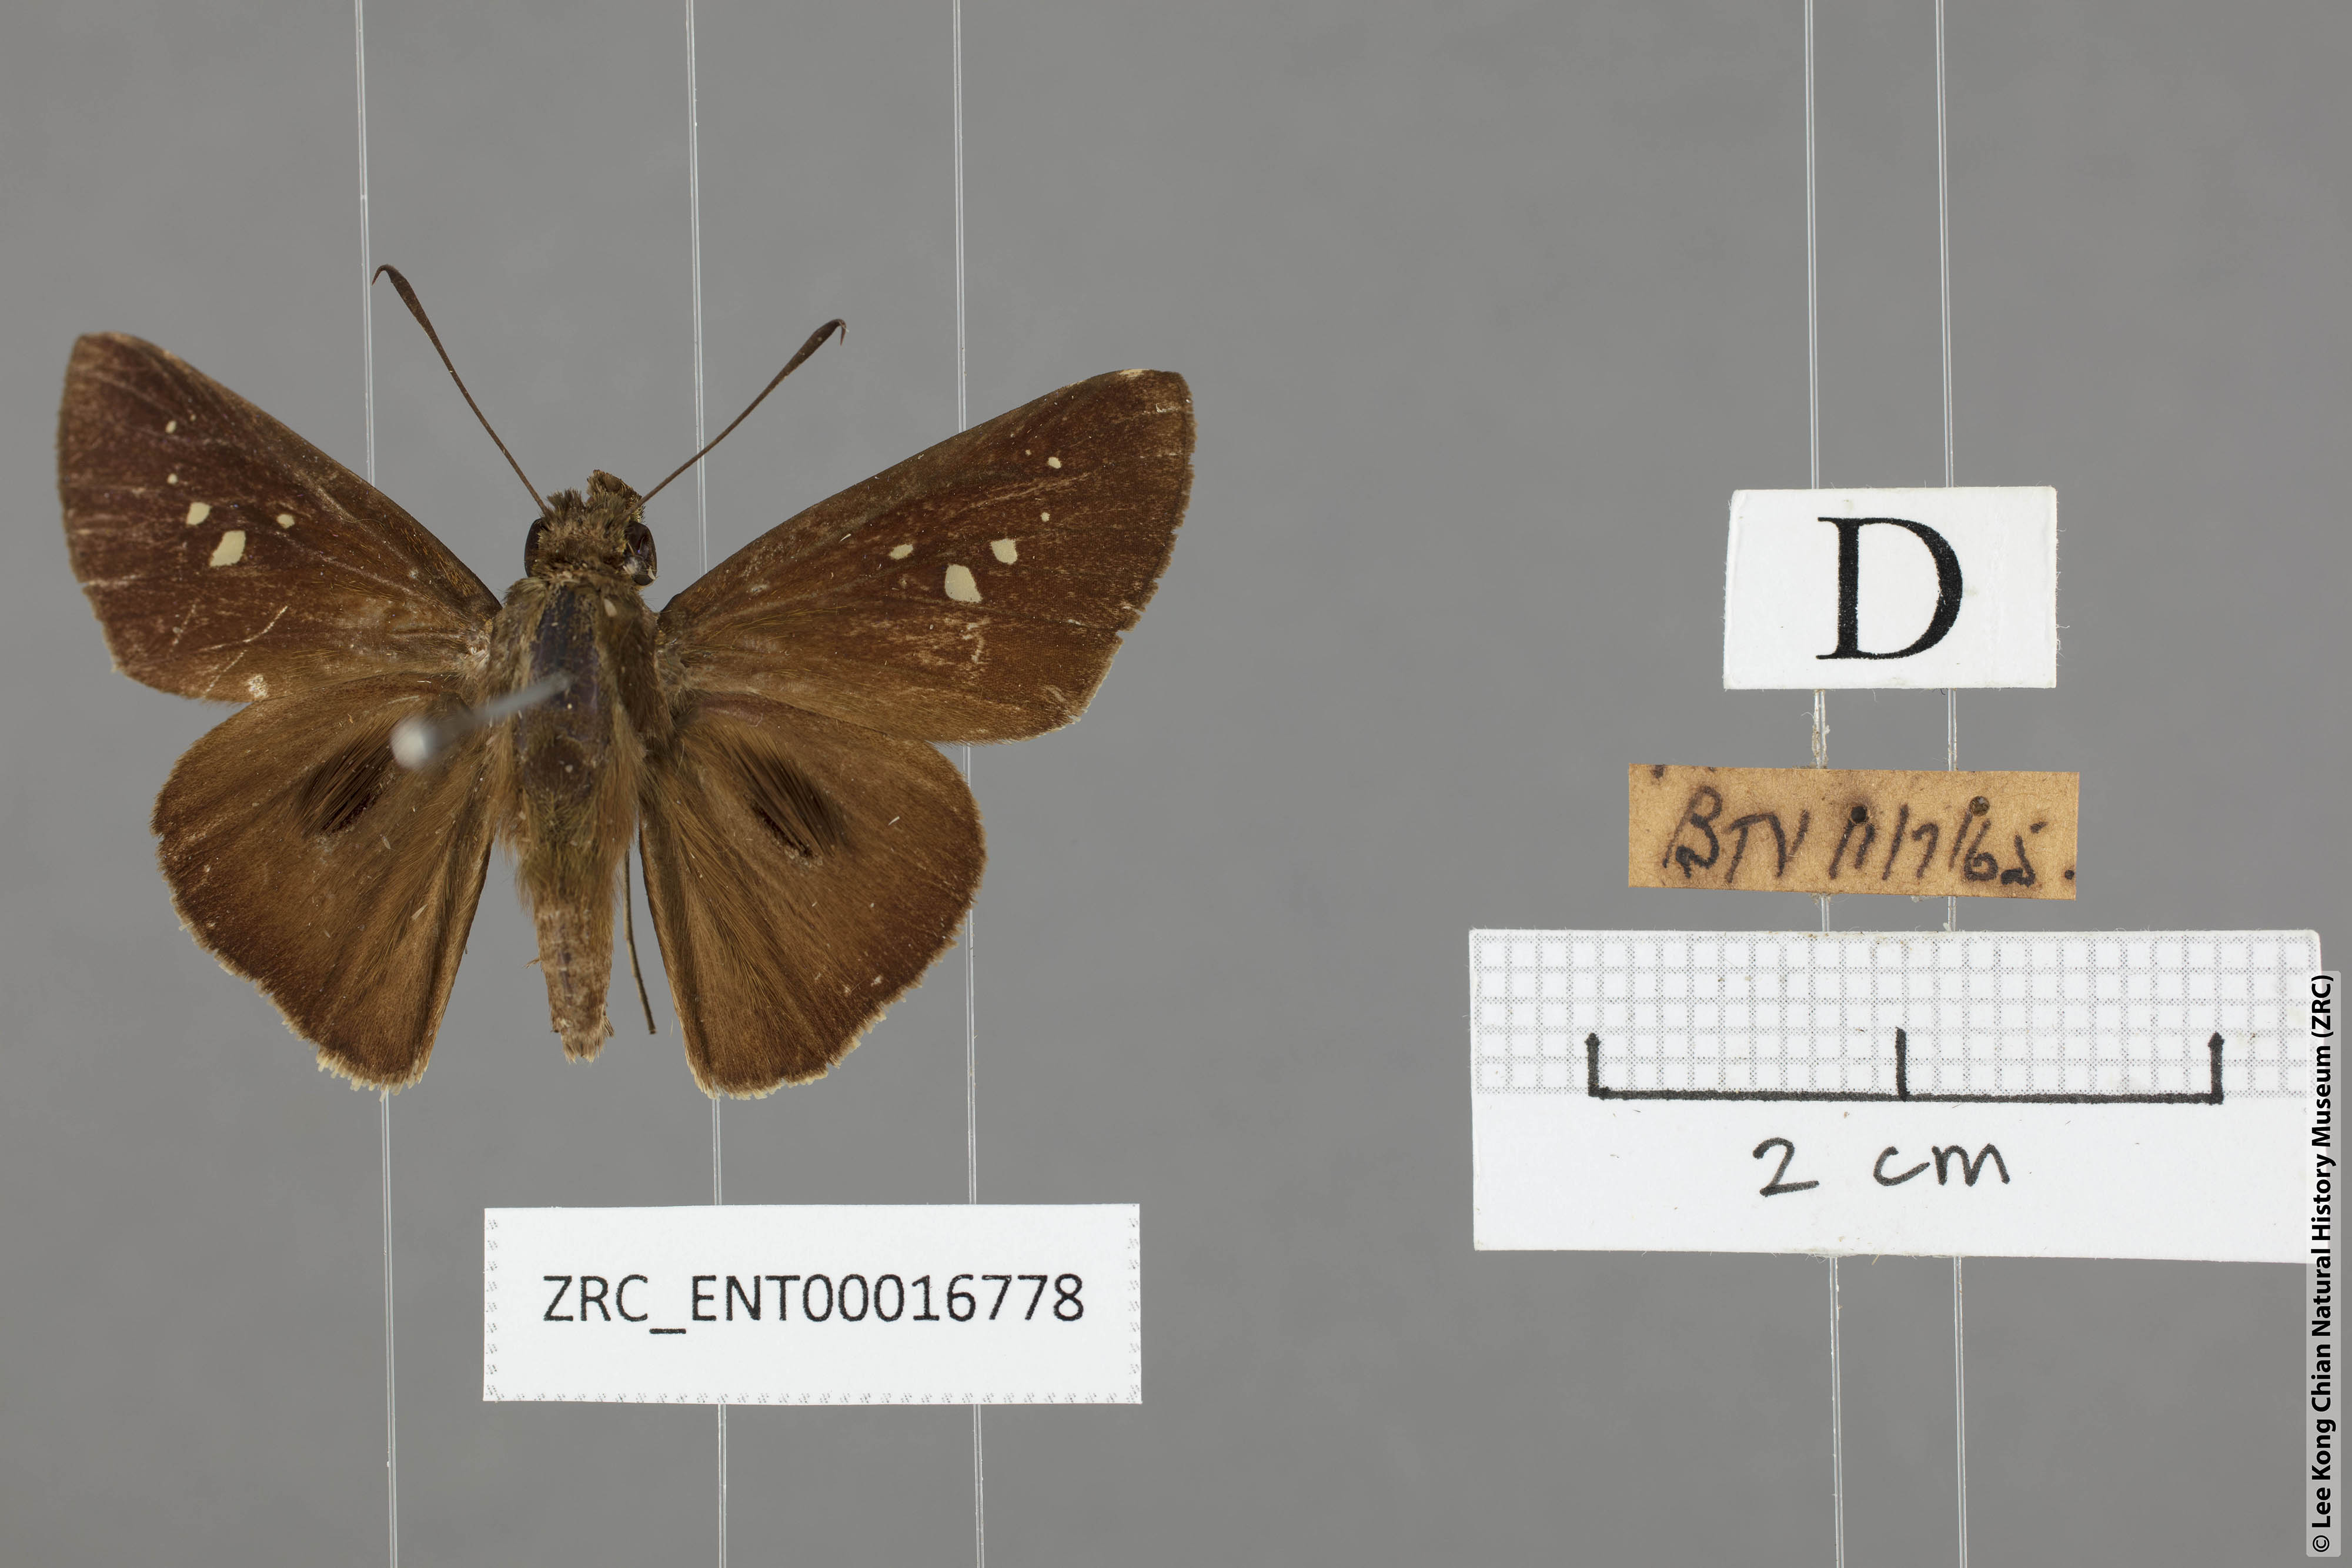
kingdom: Animalia
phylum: Arthropoda
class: Insecta
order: Lepidoptera
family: Hesperiidae
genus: Baoris
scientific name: Baoris farri
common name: Paintbrush swift
